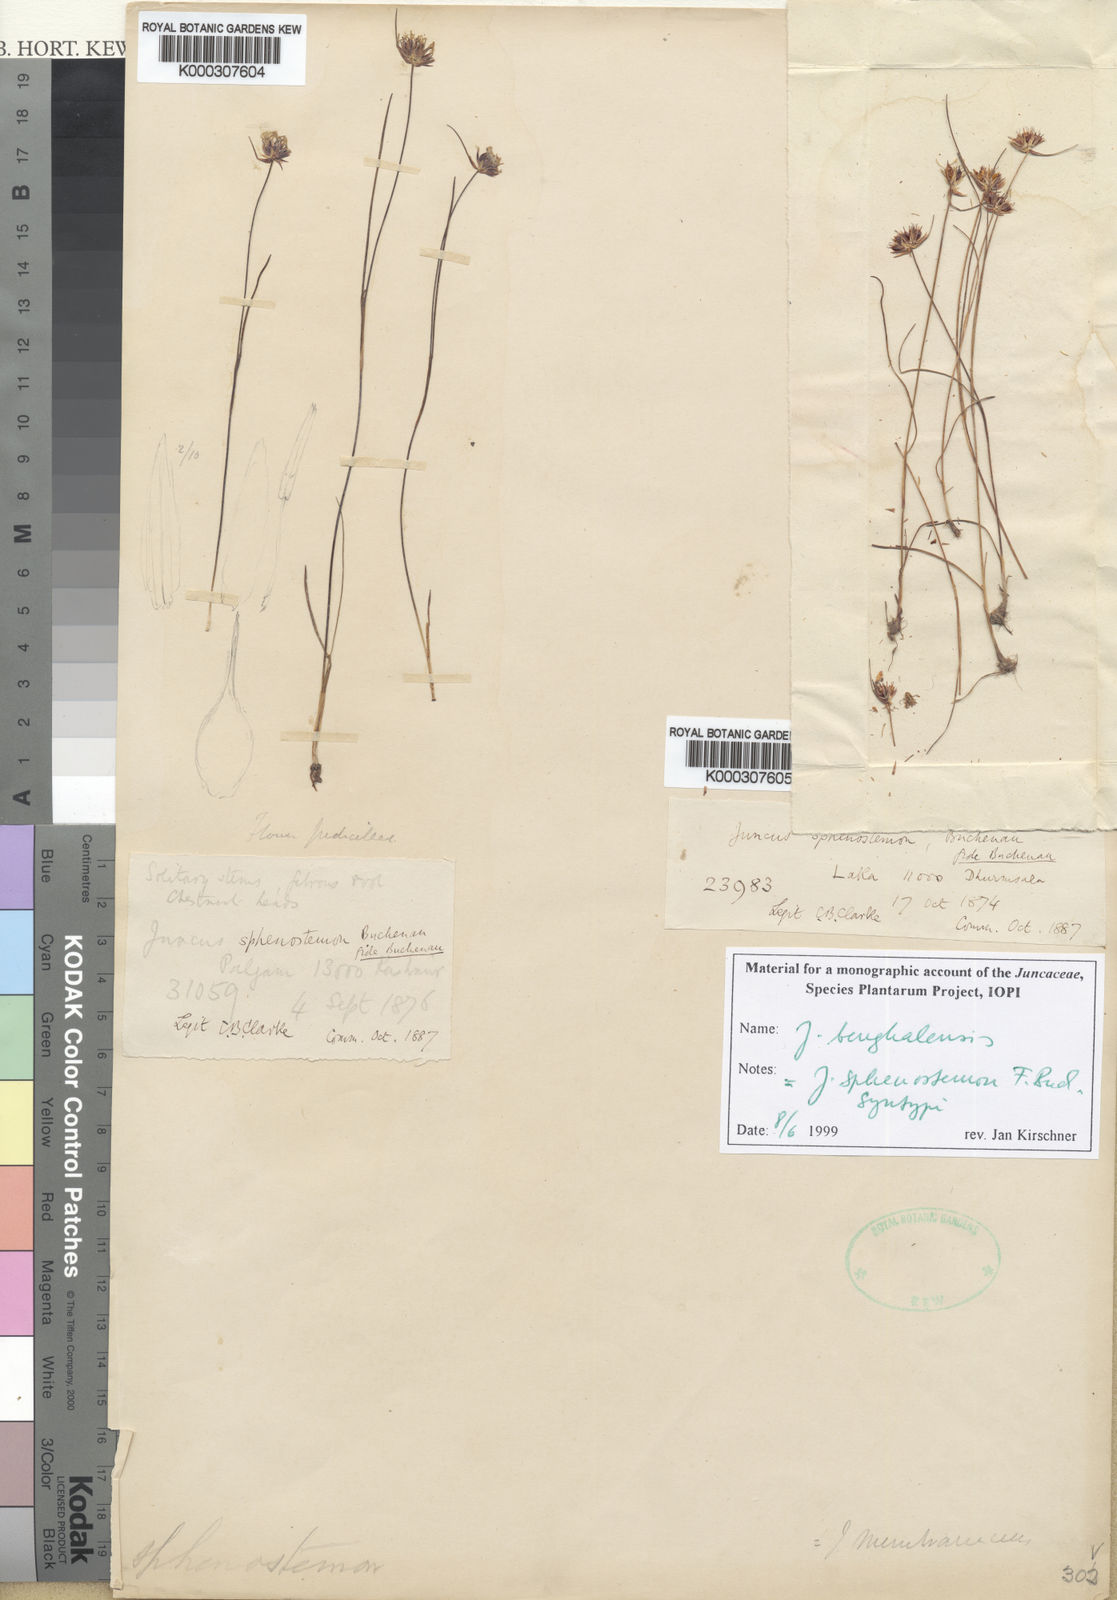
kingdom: Plantae
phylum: Tracheophyta
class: Liliopsida
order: Poales
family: Juncaceae
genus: Juncus
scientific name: Juncus benghalensis
